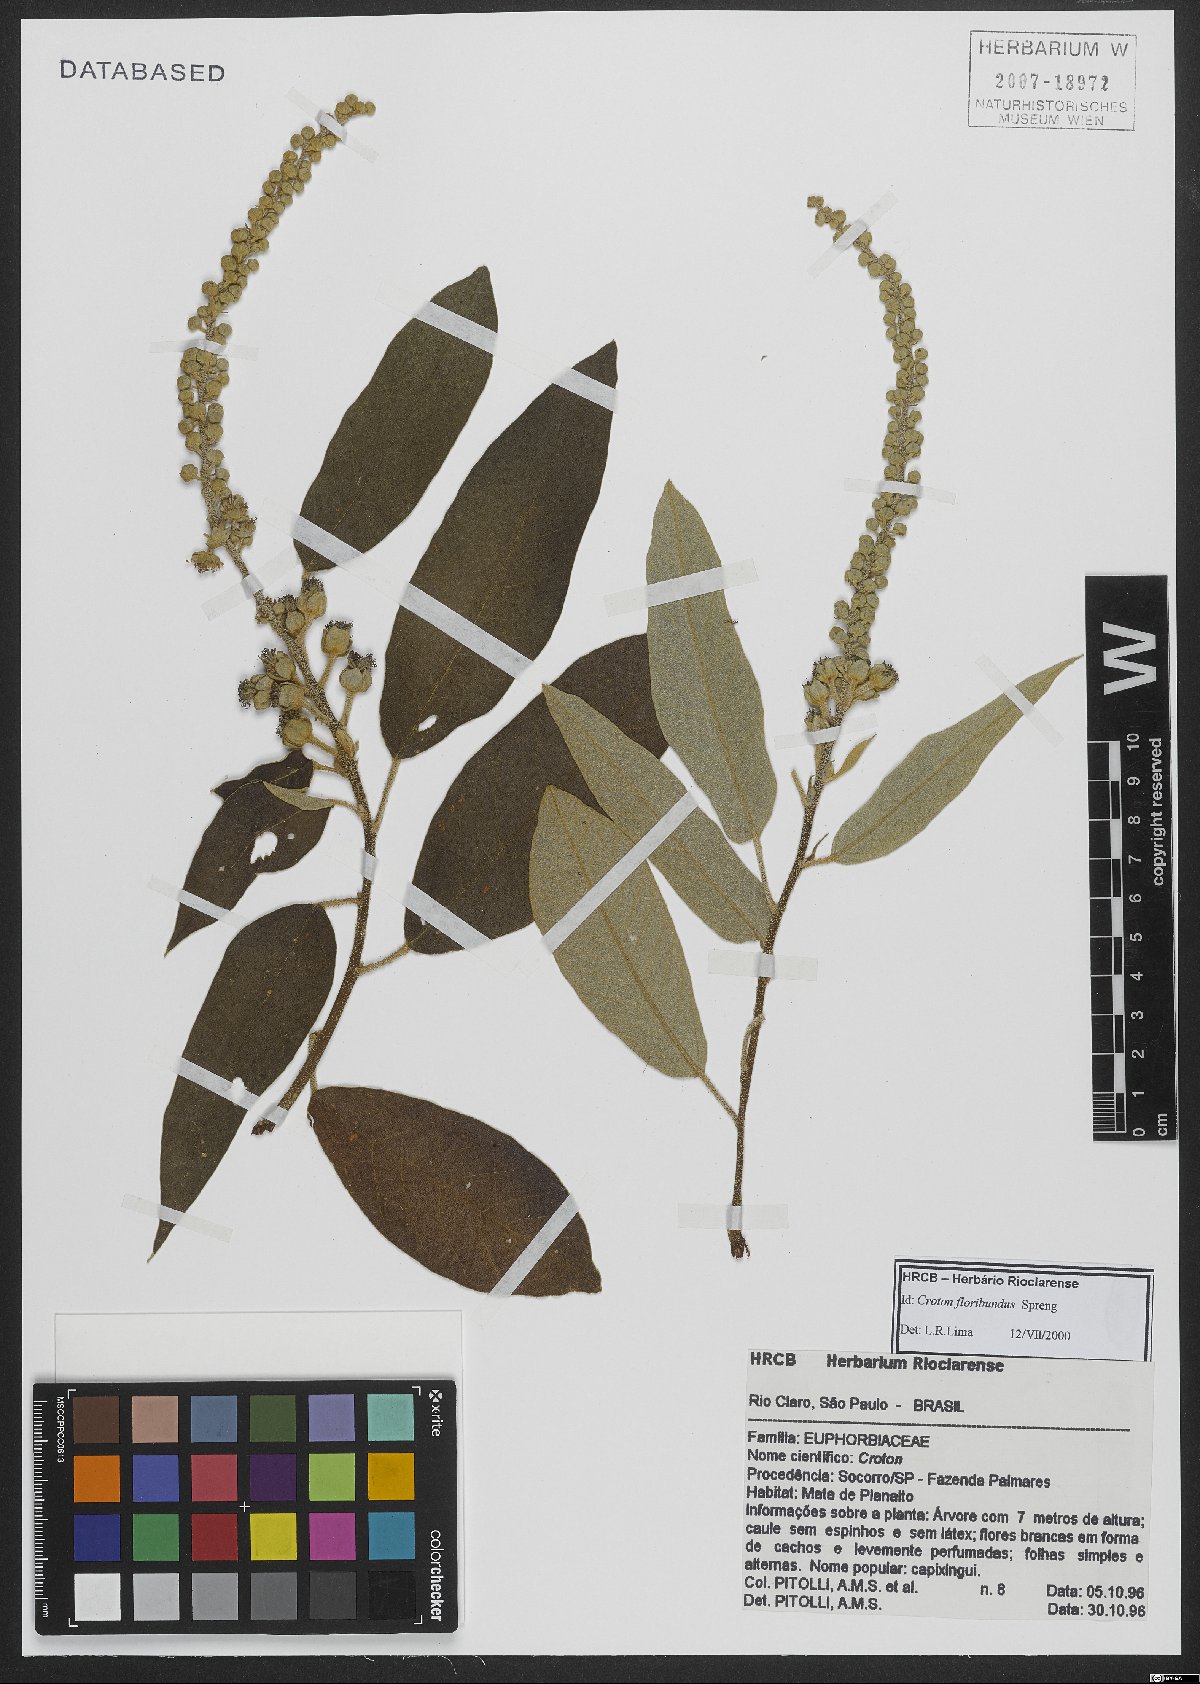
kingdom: Plantae
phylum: Tracheophyta
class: Magnoliopsida
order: Malpighiales
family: Euphorbiaceae
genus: Croton
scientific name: Croton floribundus
